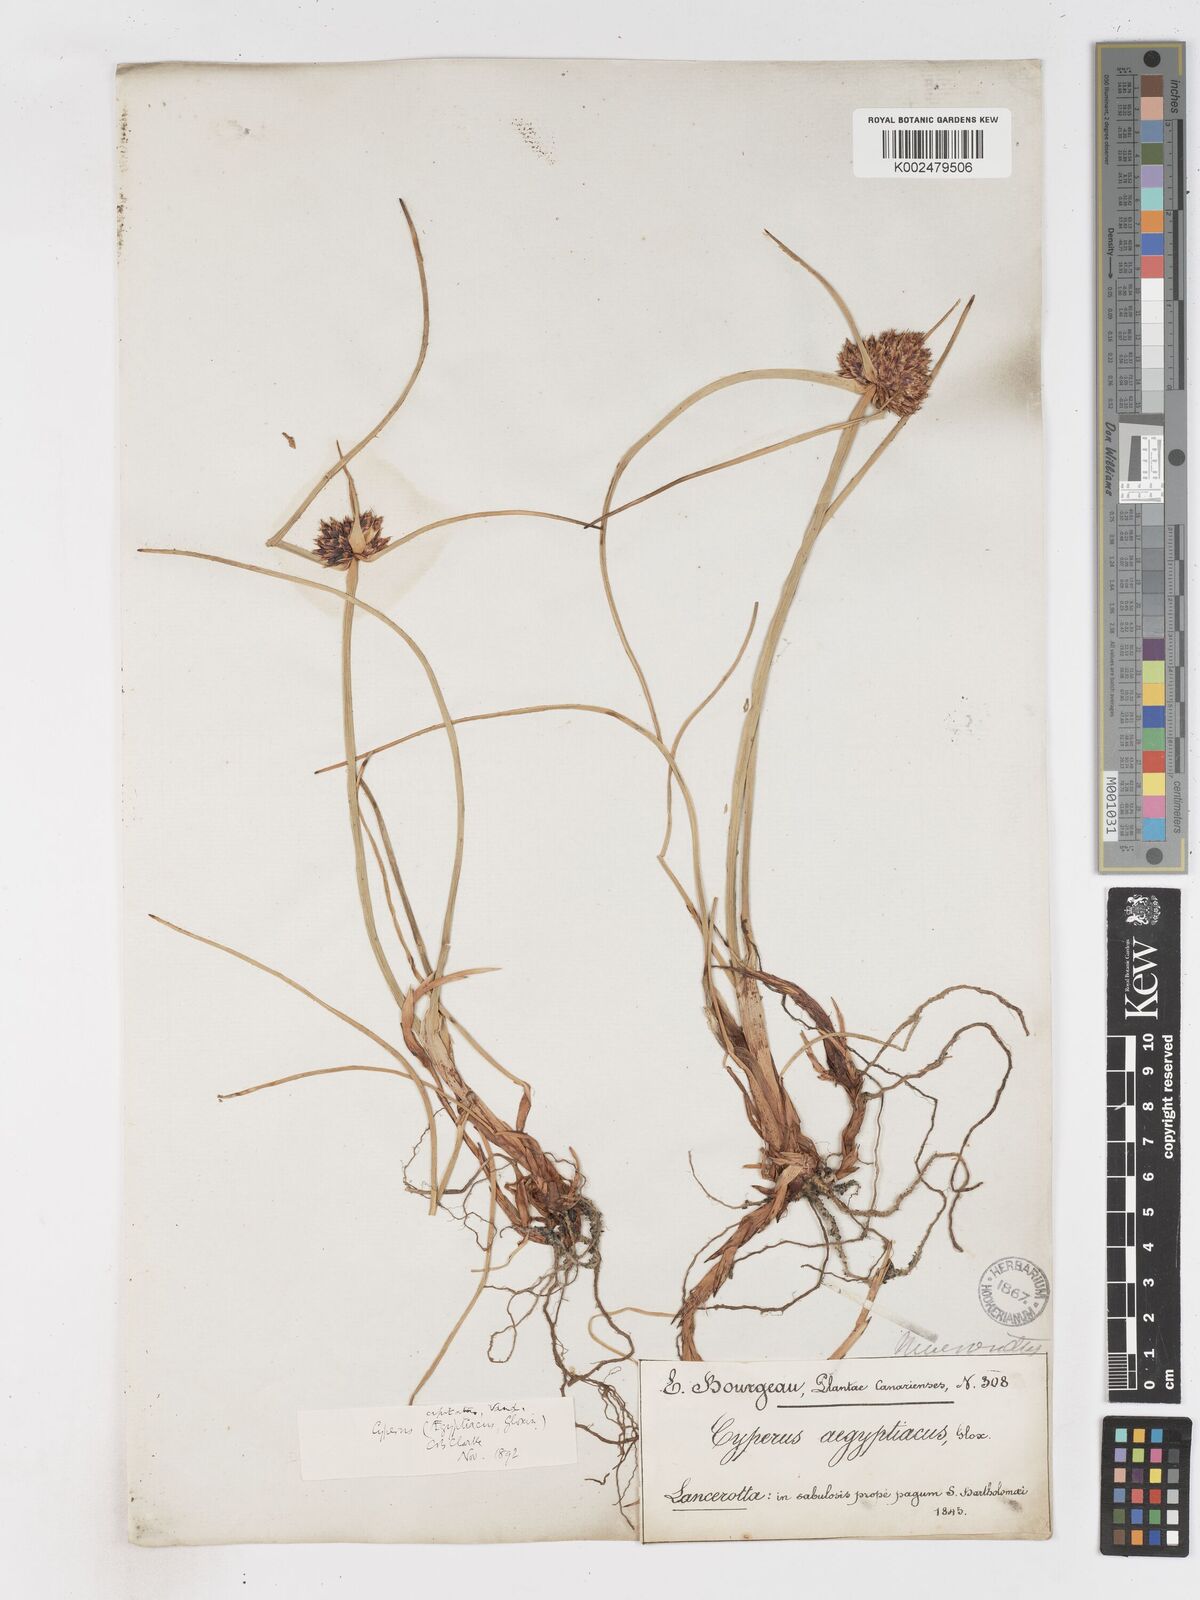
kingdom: Plantae
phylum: Tracheophyta
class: Liliopsida
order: Poales
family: Cyperaceae
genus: Cyperus
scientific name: Cyperus capitatus
